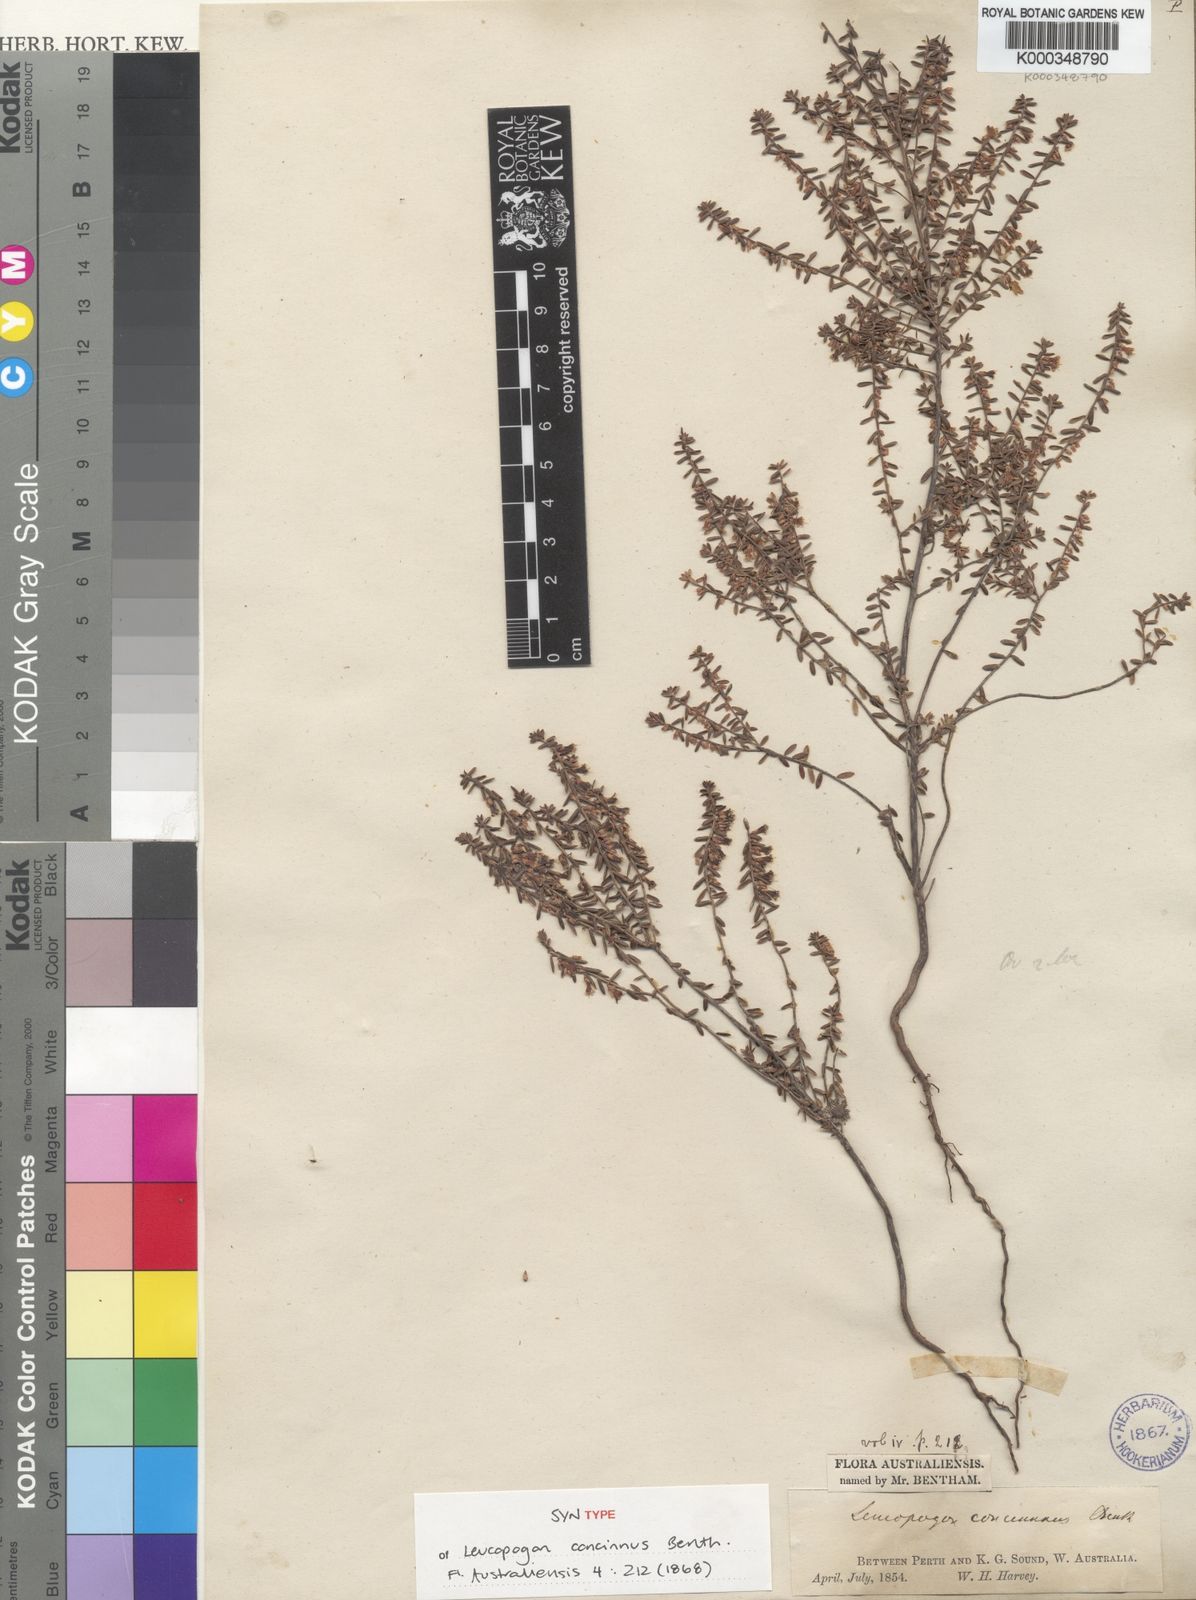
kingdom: Plantae
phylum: Tracheophyta
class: Magnoliopsida
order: Ericales
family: Ericaceae
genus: Styphelia
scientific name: Styphelia concinna
